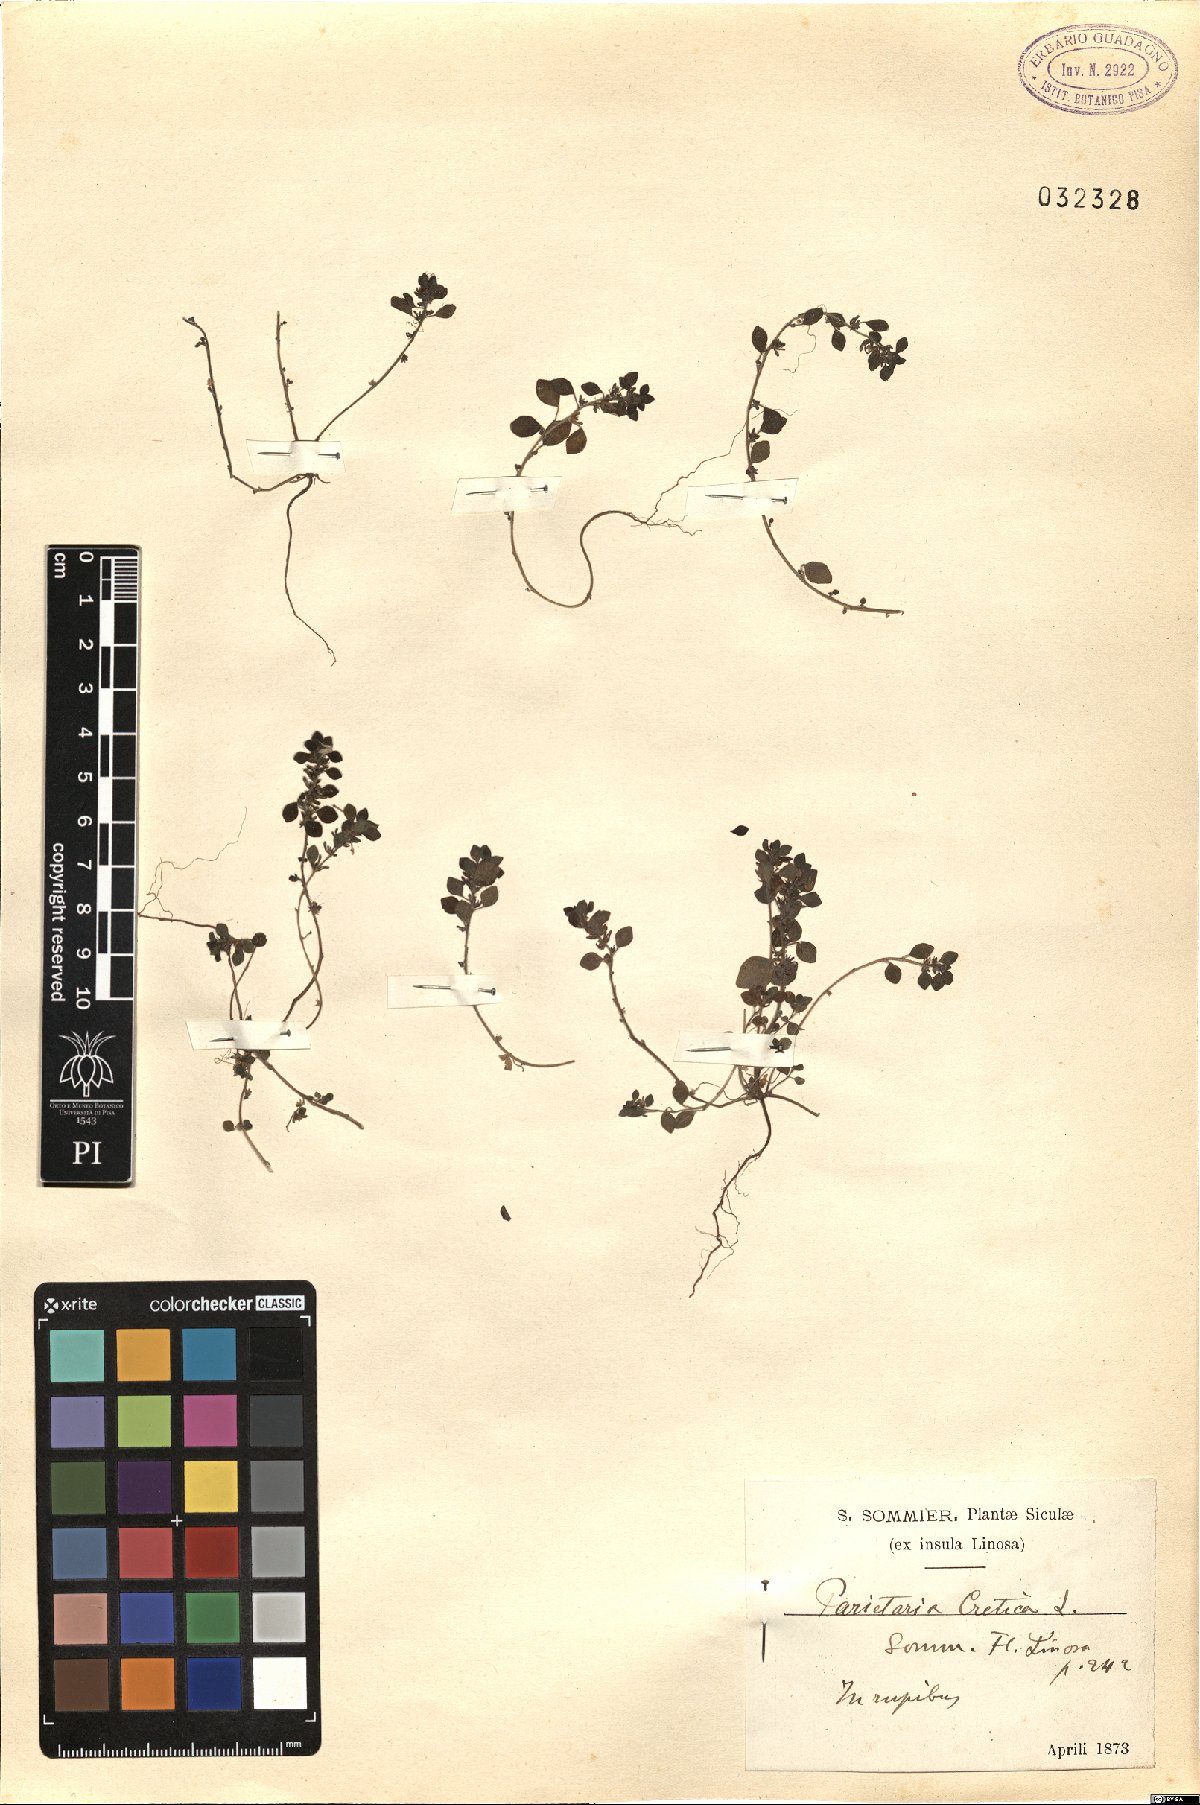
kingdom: Plantae
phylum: Tracheophyta
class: Magnoliopsida
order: Rosales
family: Urticaceae
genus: Parietaria
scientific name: Parietaria cretica
